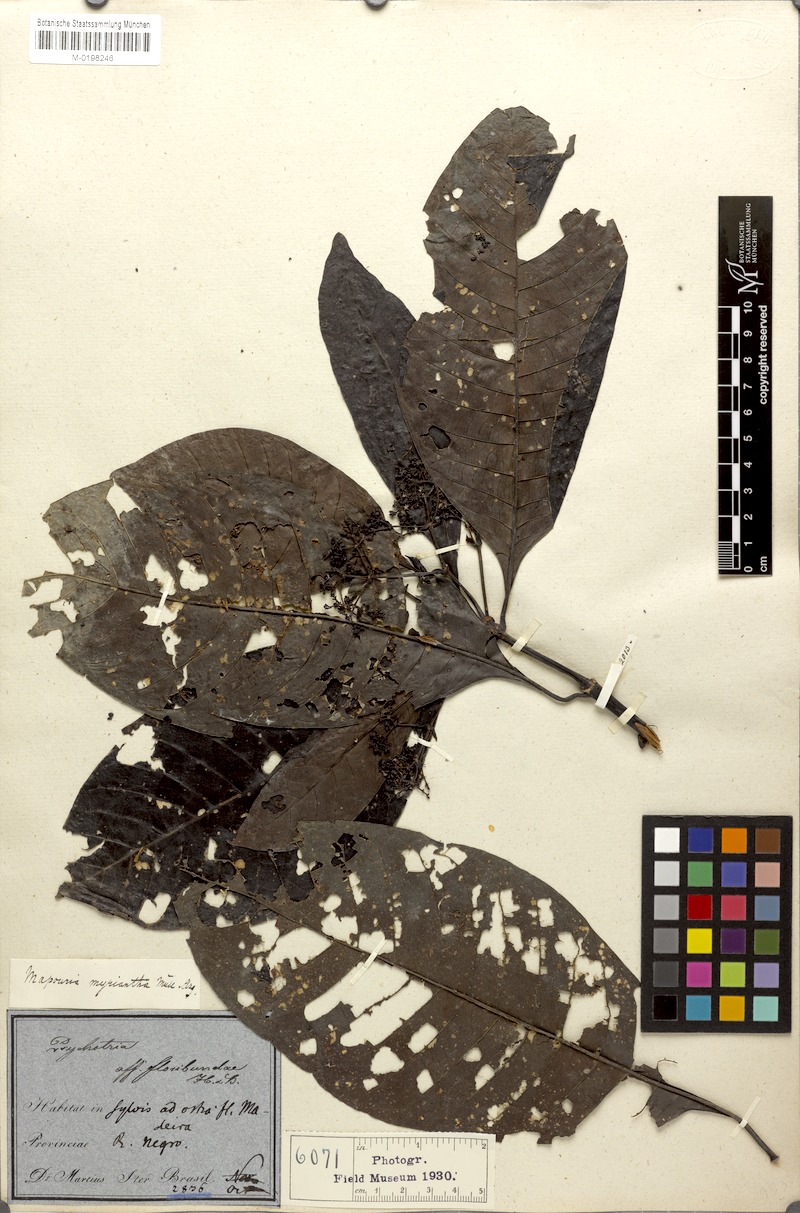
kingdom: Plantae
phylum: Tracheophyta
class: Magnoliopsida
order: Gentianales
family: Rubiaceae
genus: Psychotria
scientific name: Psychotria guianensis
